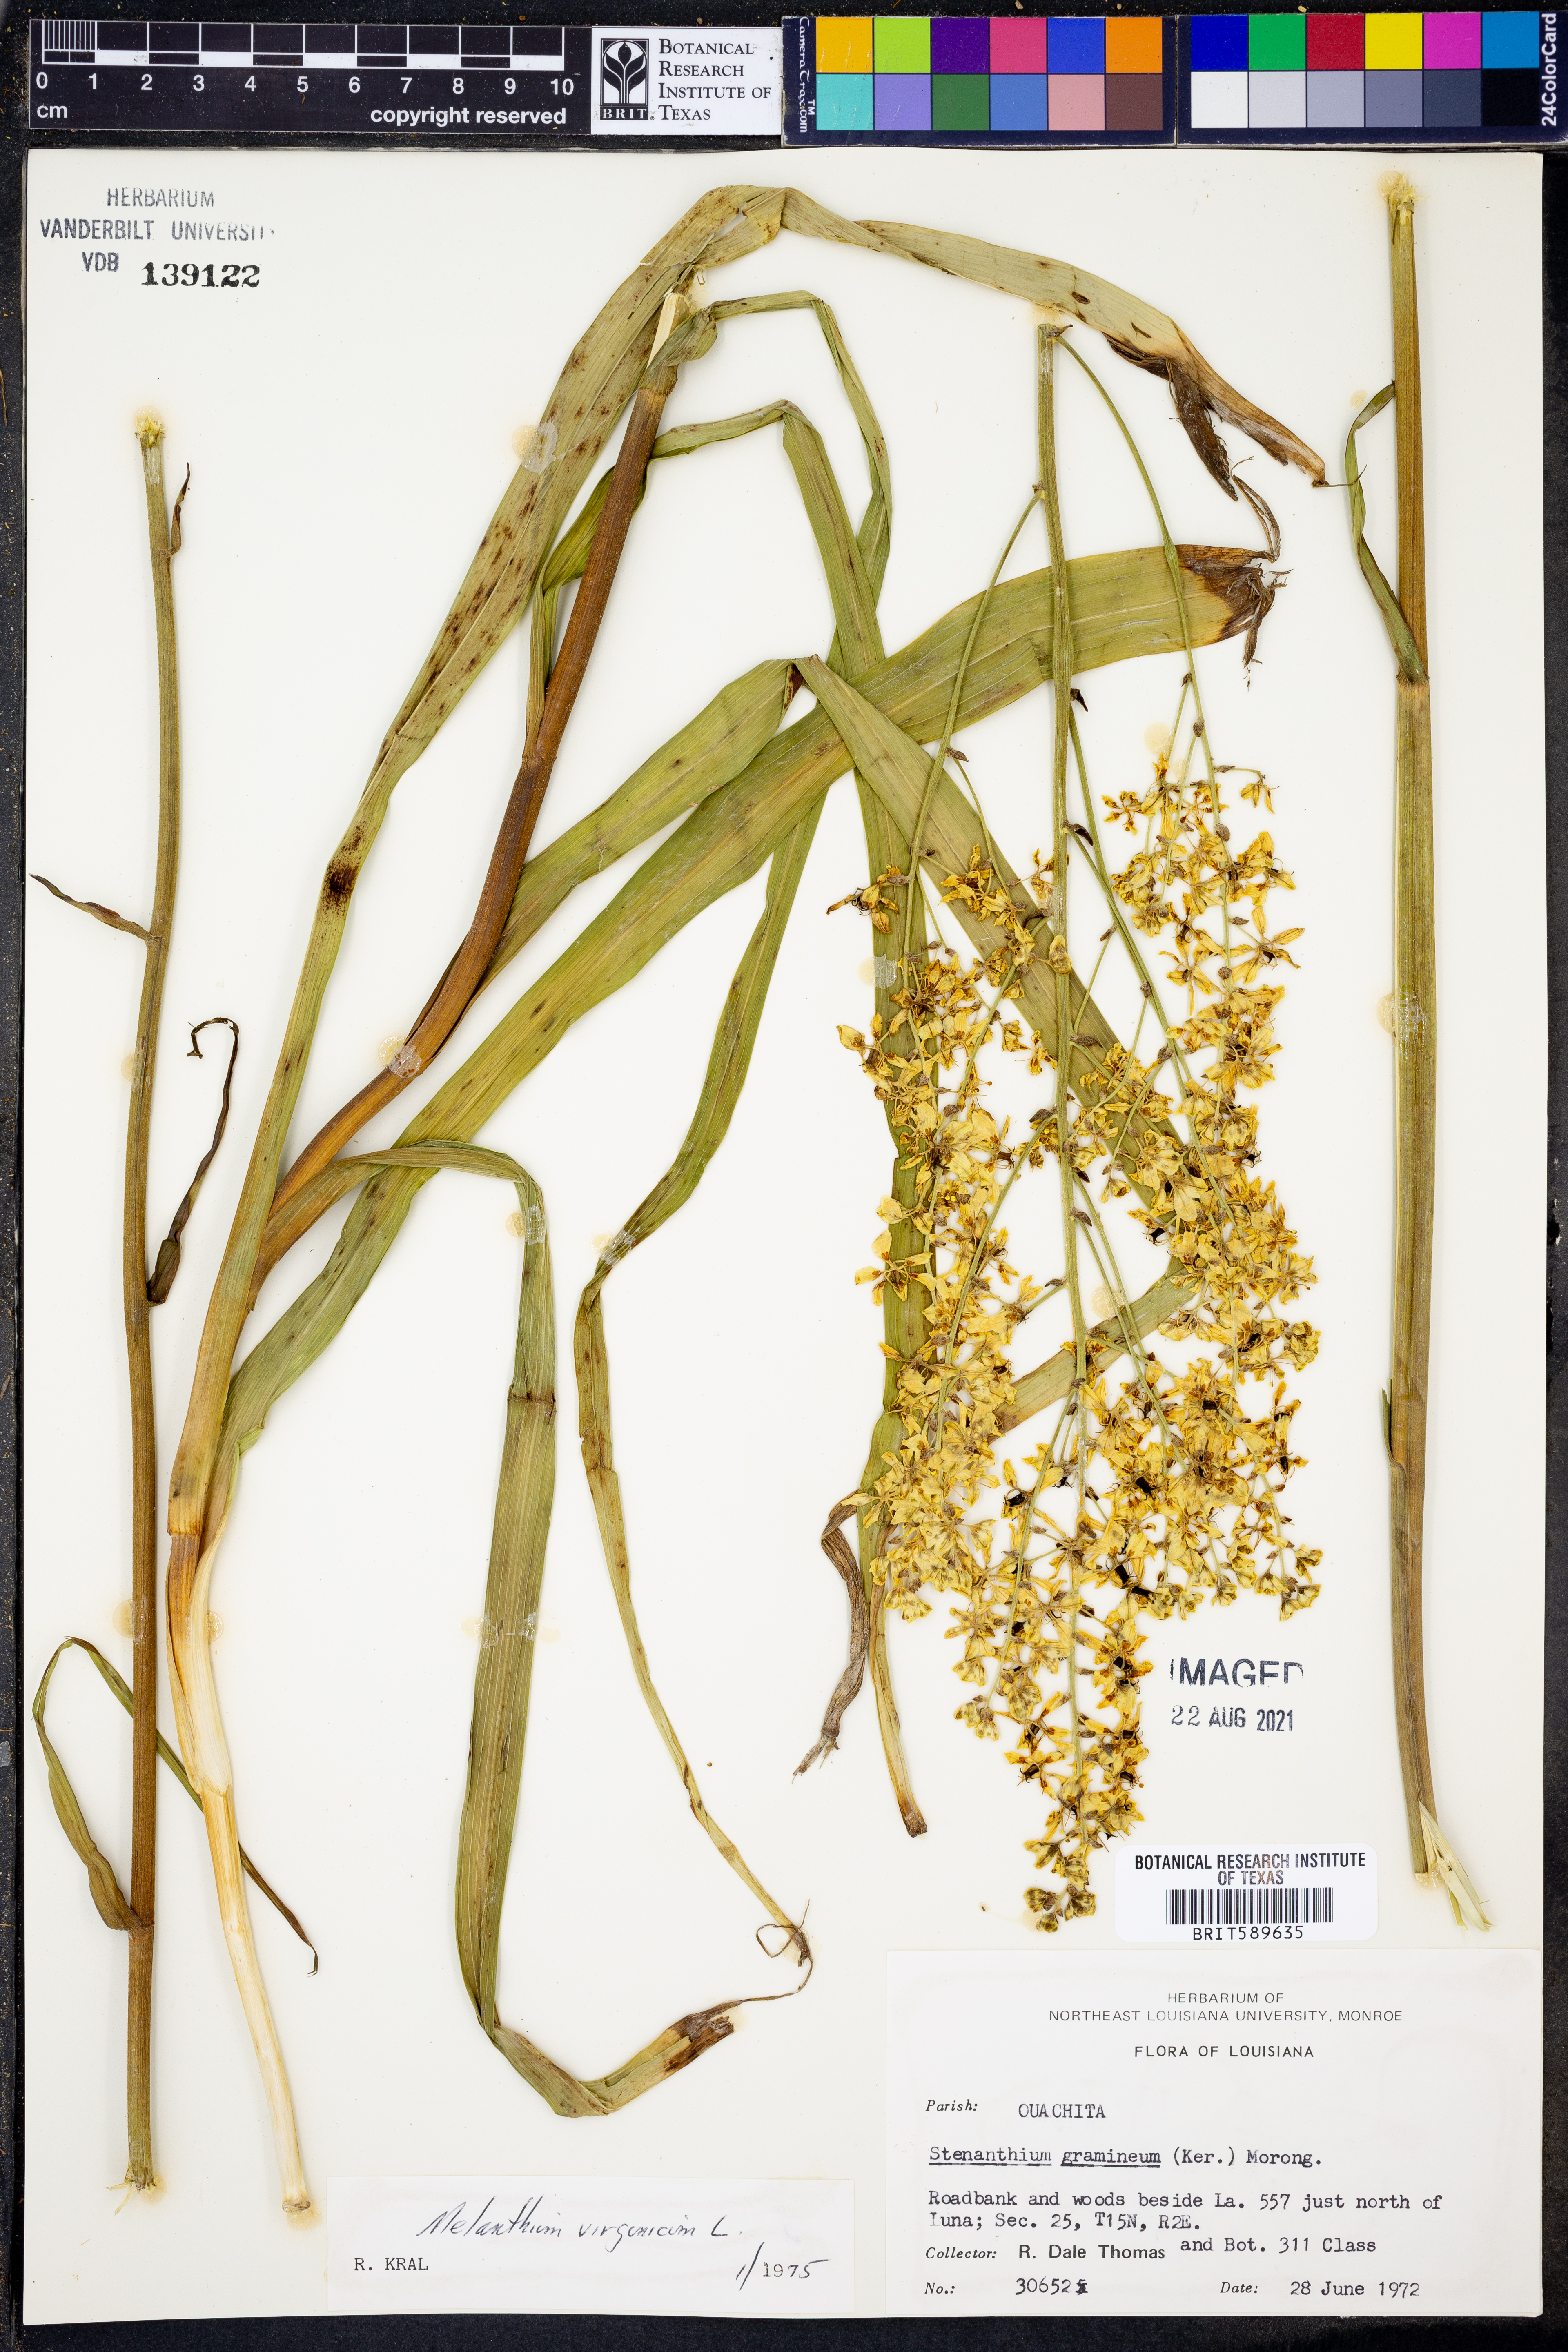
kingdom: Plantae
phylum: Tracheophyta
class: Liliopsida
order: Liliales
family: Melanthiaceae
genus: Melanthium
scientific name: Melanthium virginicum
